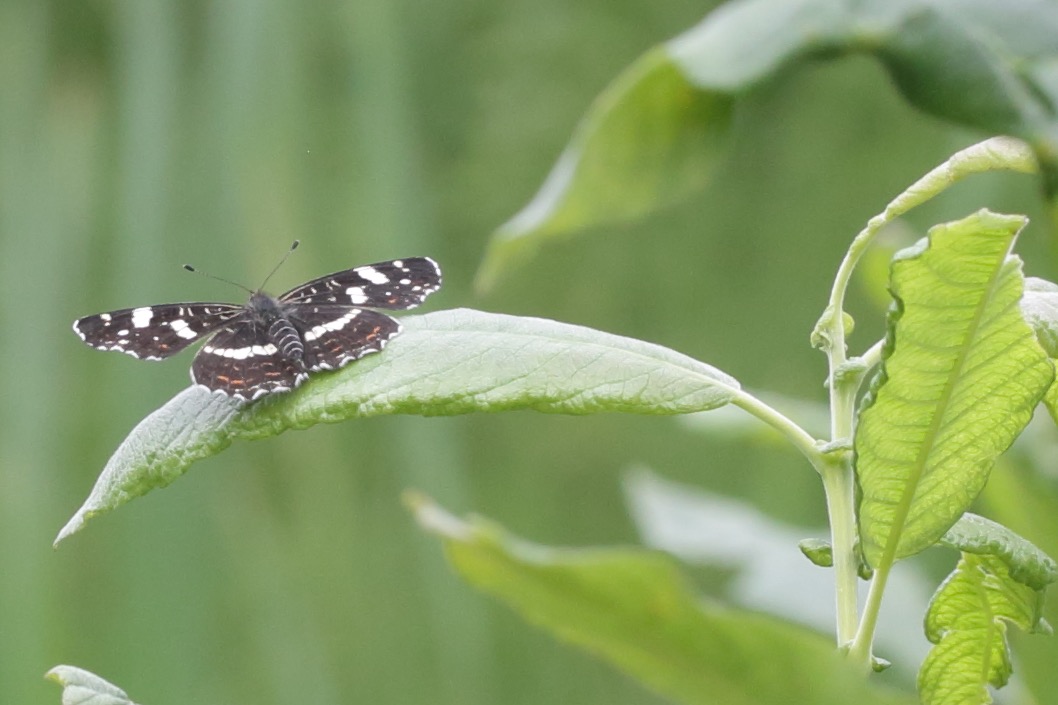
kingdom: Animalia
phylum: Arthropoda
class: Insecta
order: Lepidoptera
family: Nymphalidae
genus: Araschnia
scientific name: Araschnia levana
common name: Nældesommerfugl
